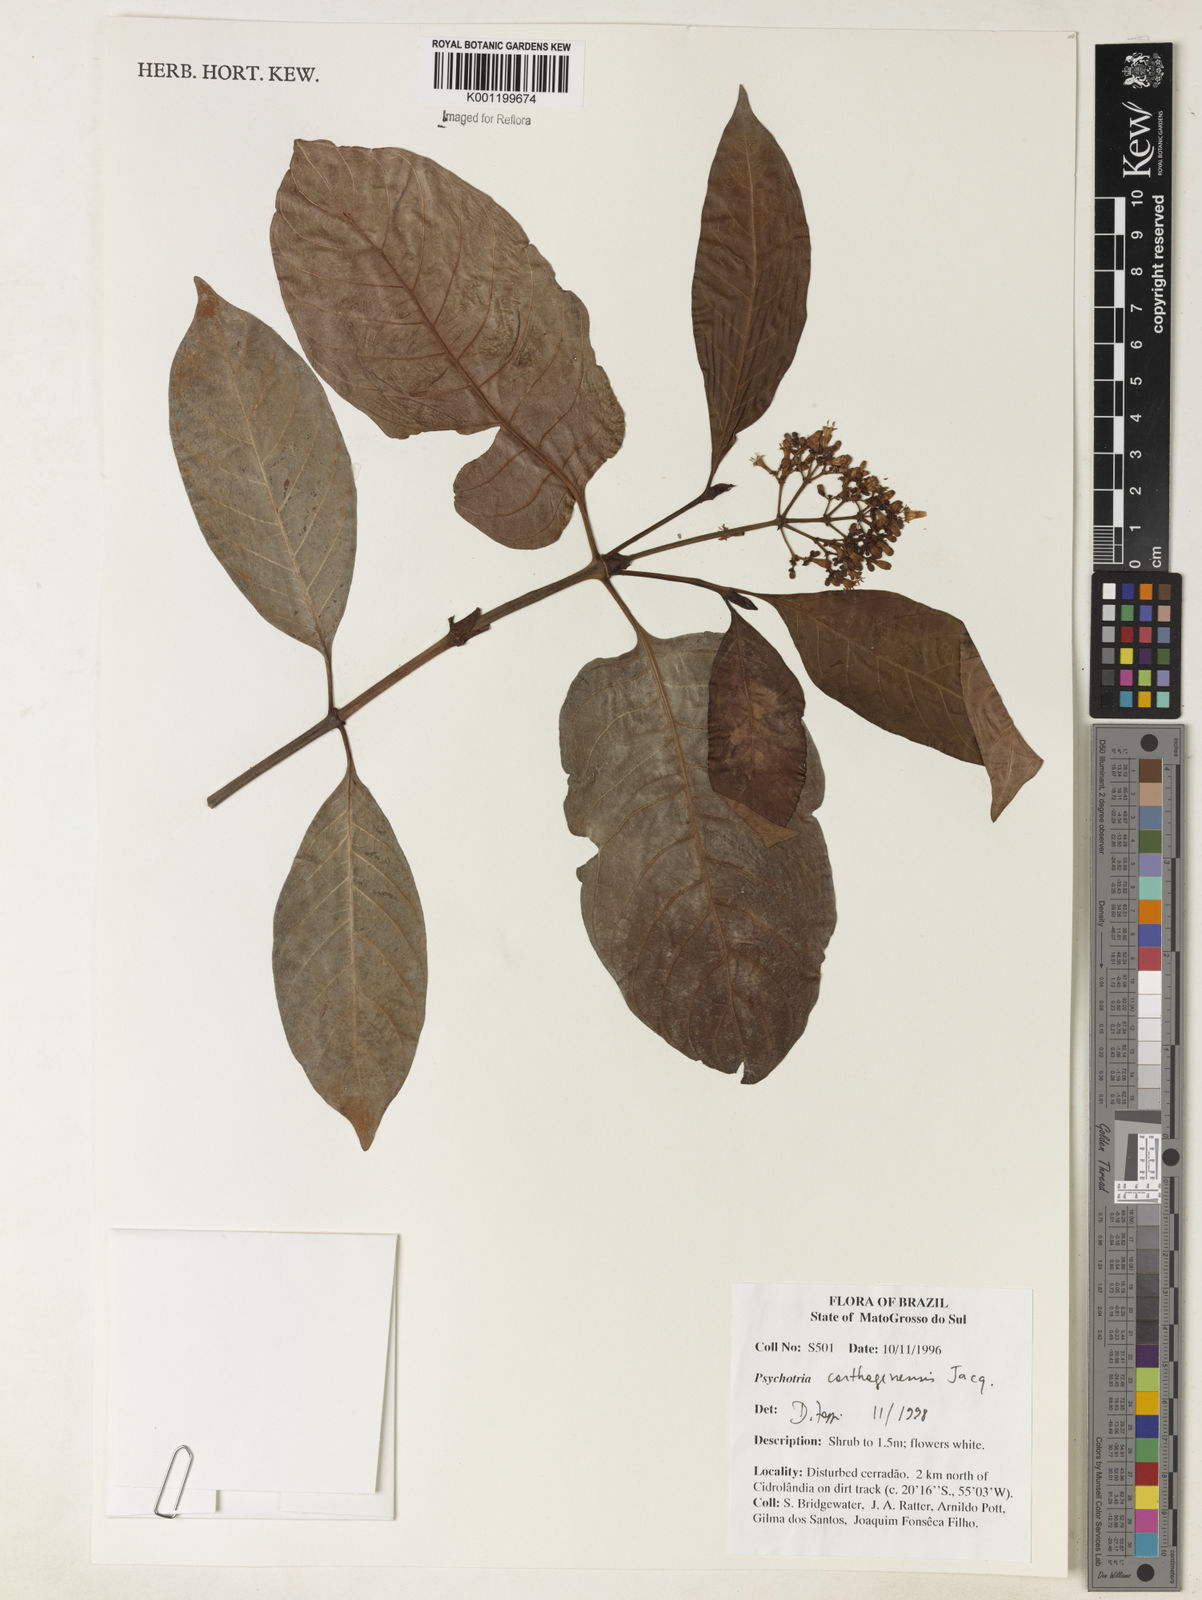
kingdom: Plantae
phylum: Tracheophyta
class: Magnoliopsida
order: Gentianales
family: Rubiaceae
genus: Psychotria
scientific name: Psychotria carthagenensis
